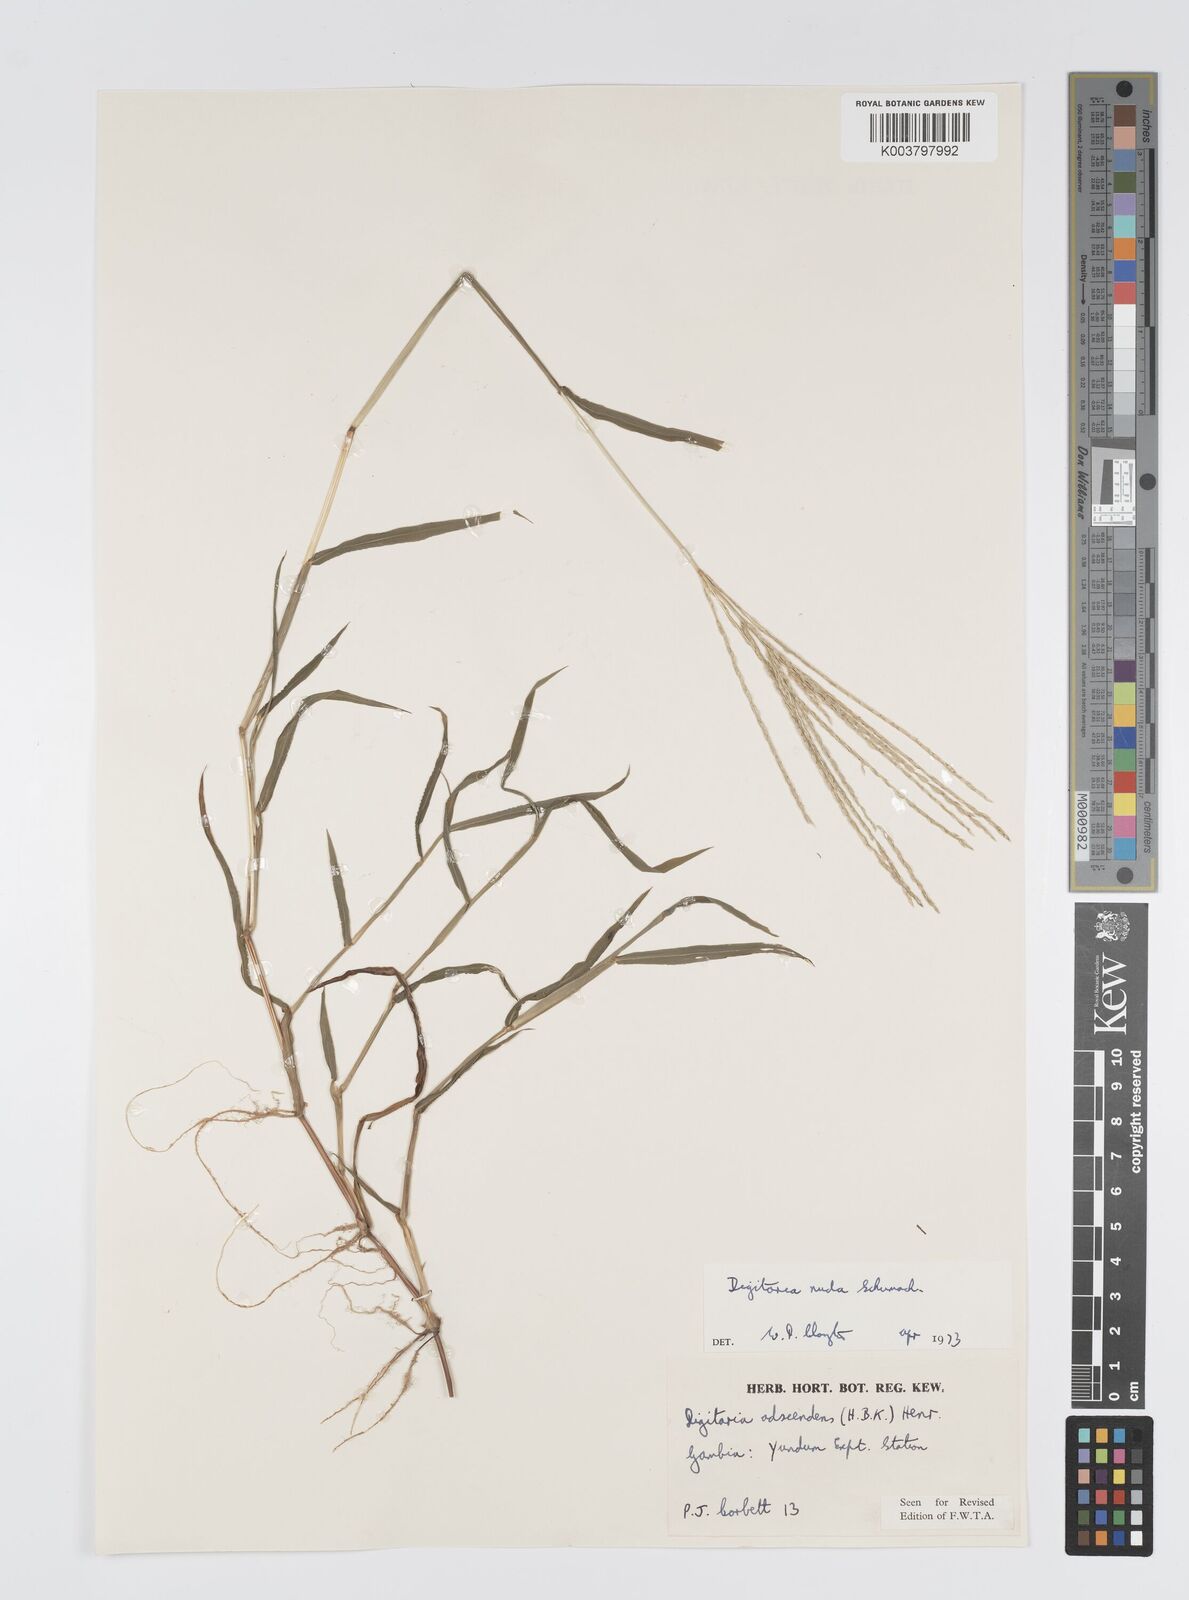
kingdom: Plantae
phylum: Tracheophyta
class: Liliopsida
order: Poales
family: Poaceae
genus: Digitaria
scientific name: Digitaria nuda
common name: Naked crabgrass
